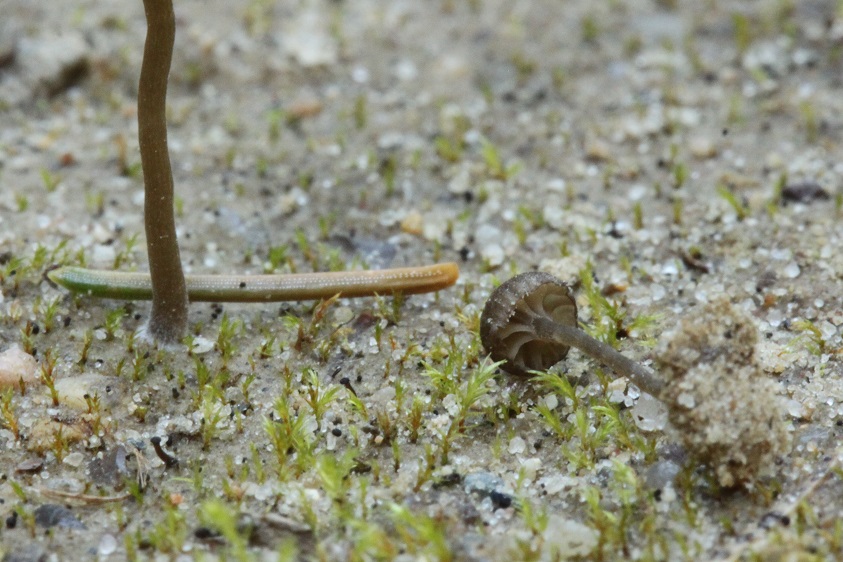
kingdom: Fungi
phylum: Basidiomycota
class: Agaricomycetes
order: Agaricales
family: Hygrophoraceae
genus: Arrhenia
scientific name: Arrhenia velutipes
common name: dunstokket fontænehat
